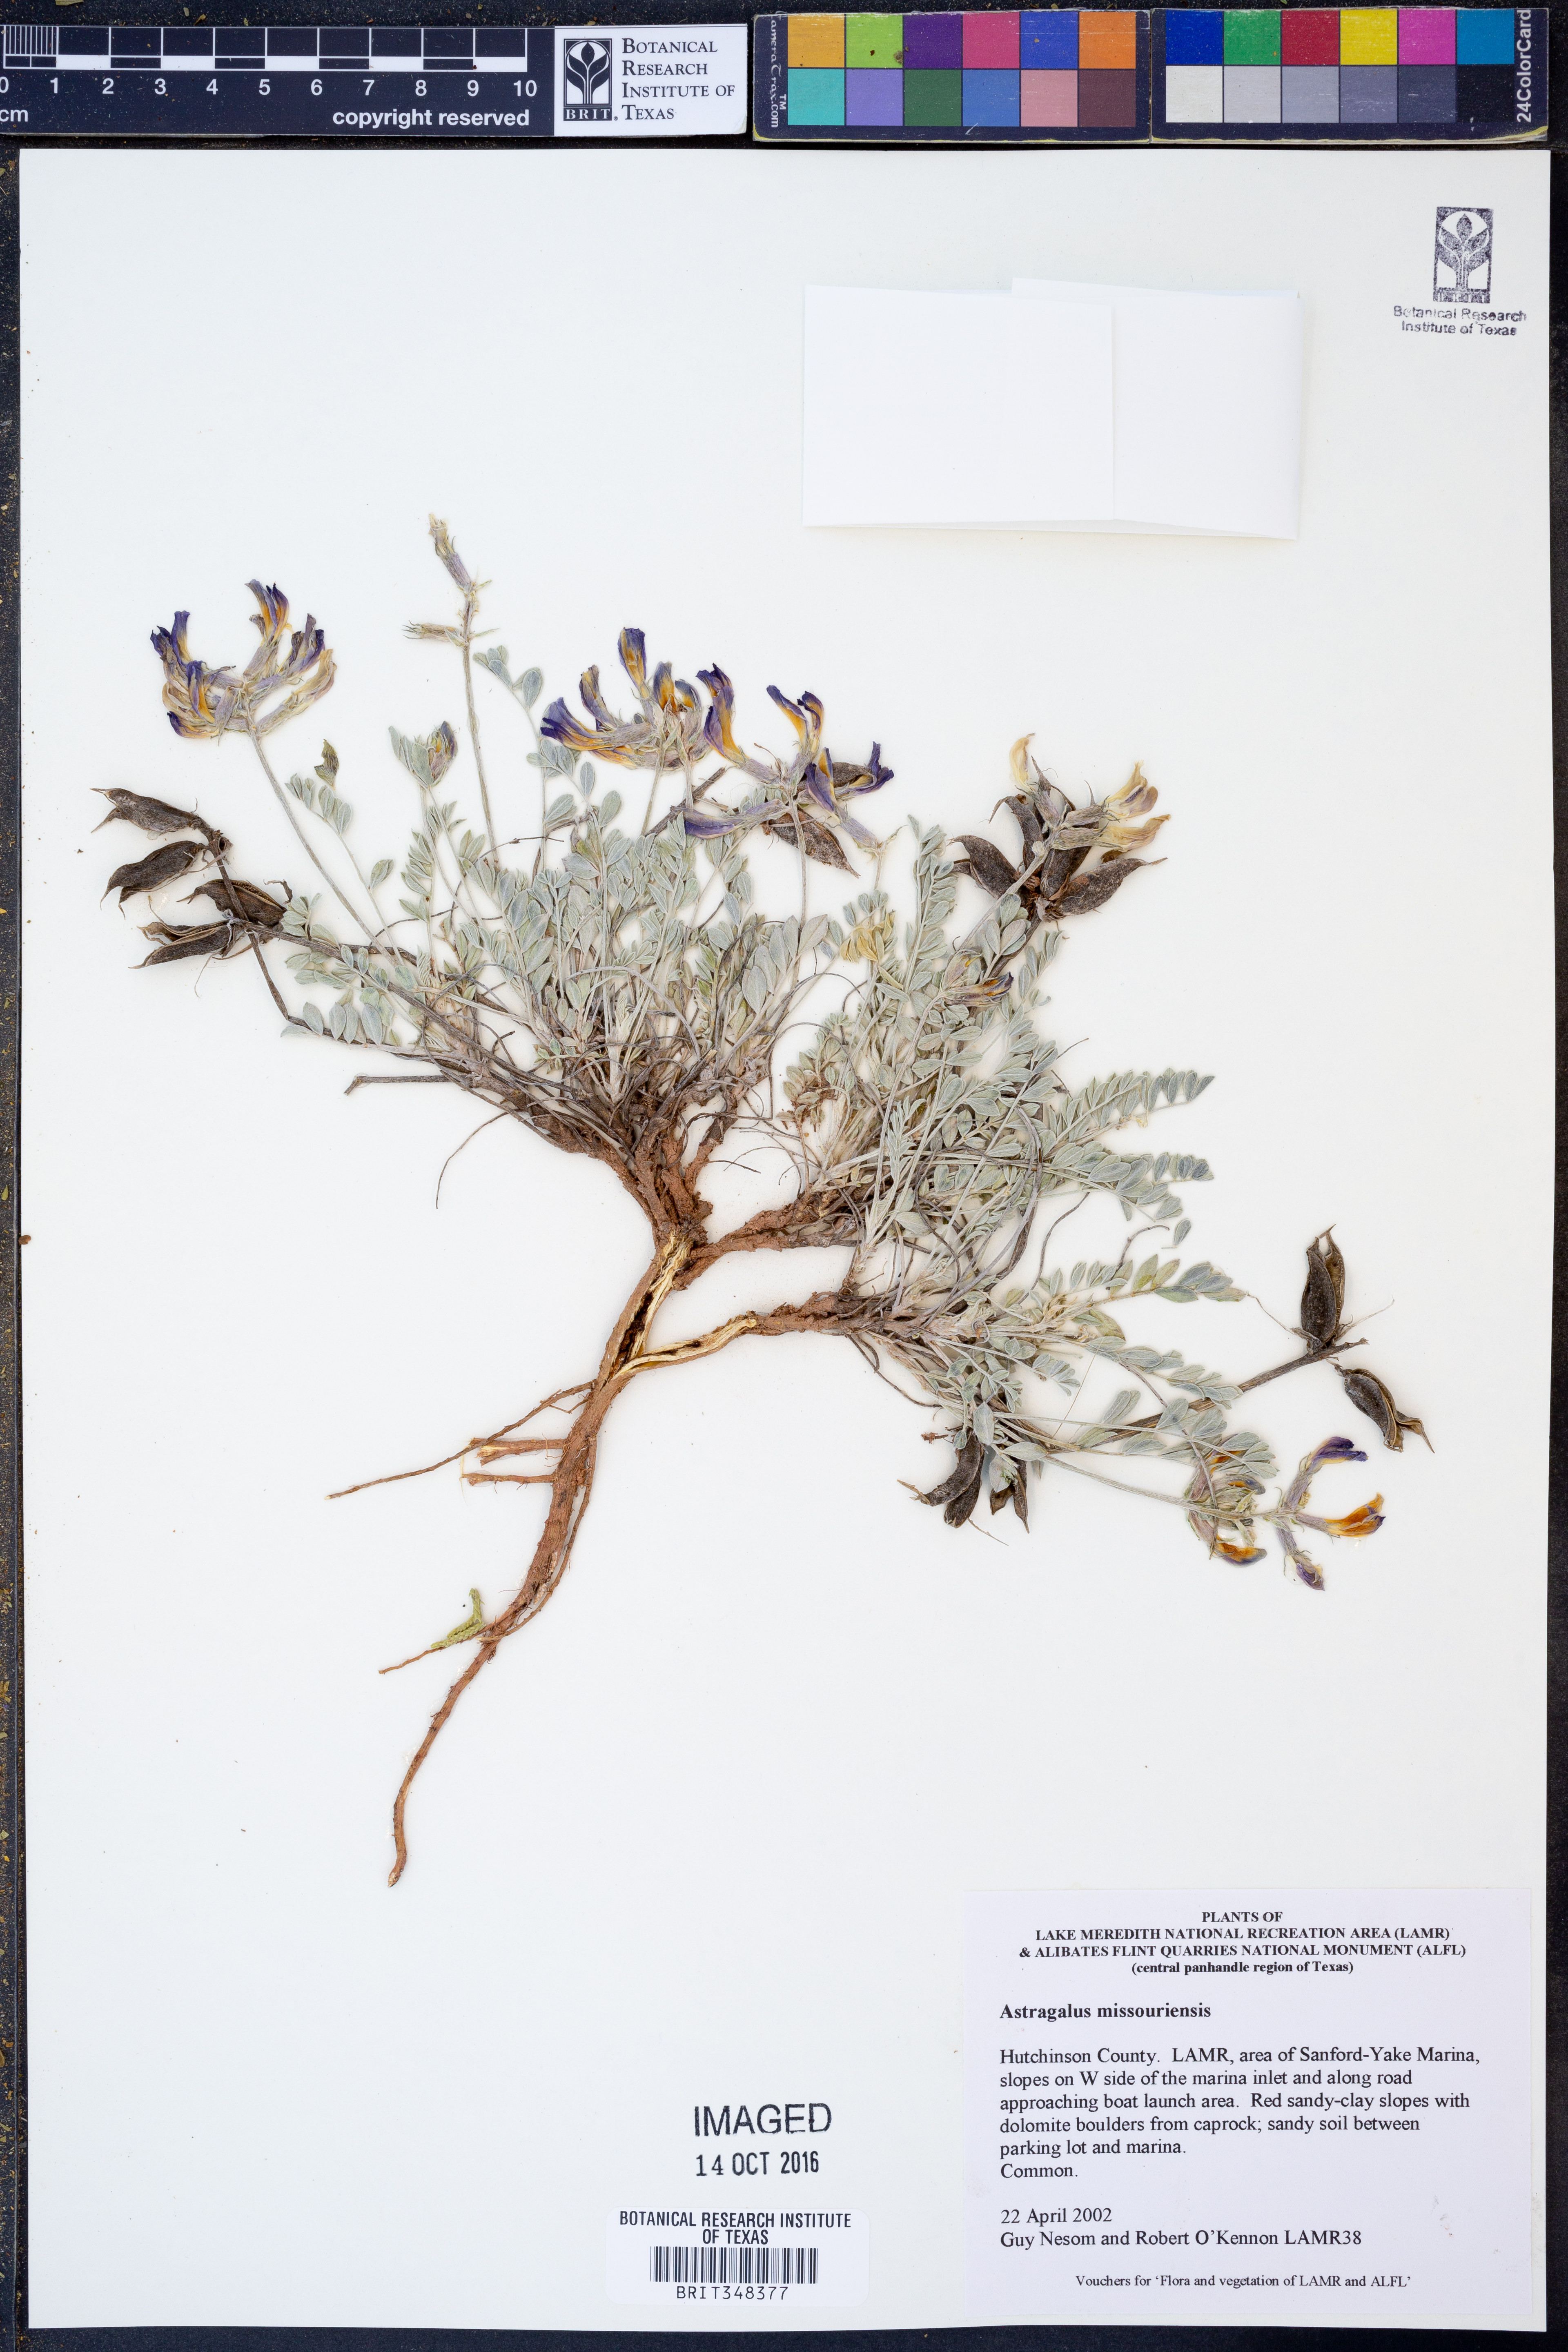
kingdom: Plantae
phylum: Tracheophyta
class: Magnoliopsida
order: Fabales
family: Fabaceae
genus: Astragalus
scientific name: Astragalus missouriensis
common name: Missouri milk-vetch
